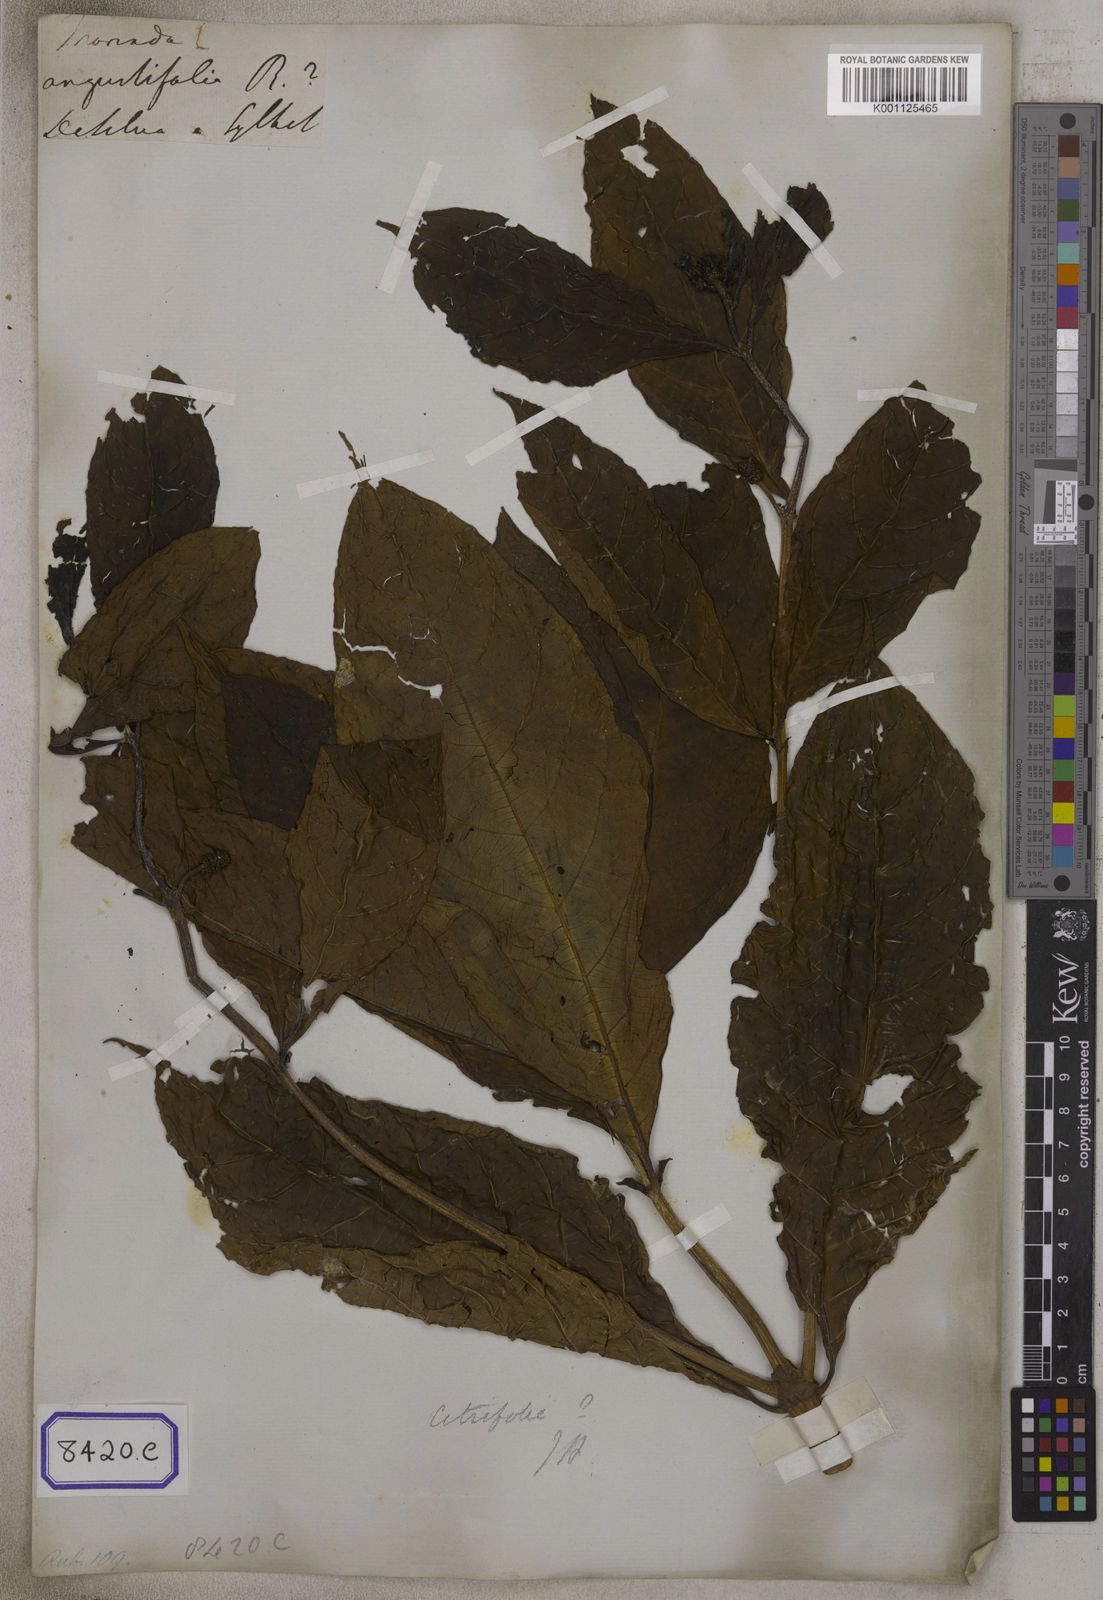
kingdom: Plantae
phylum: Tracheophyta
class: Magnoliopsida
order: Gentianales
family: Rubiaceae
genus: Morinda
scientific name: Morinda angustifolia
